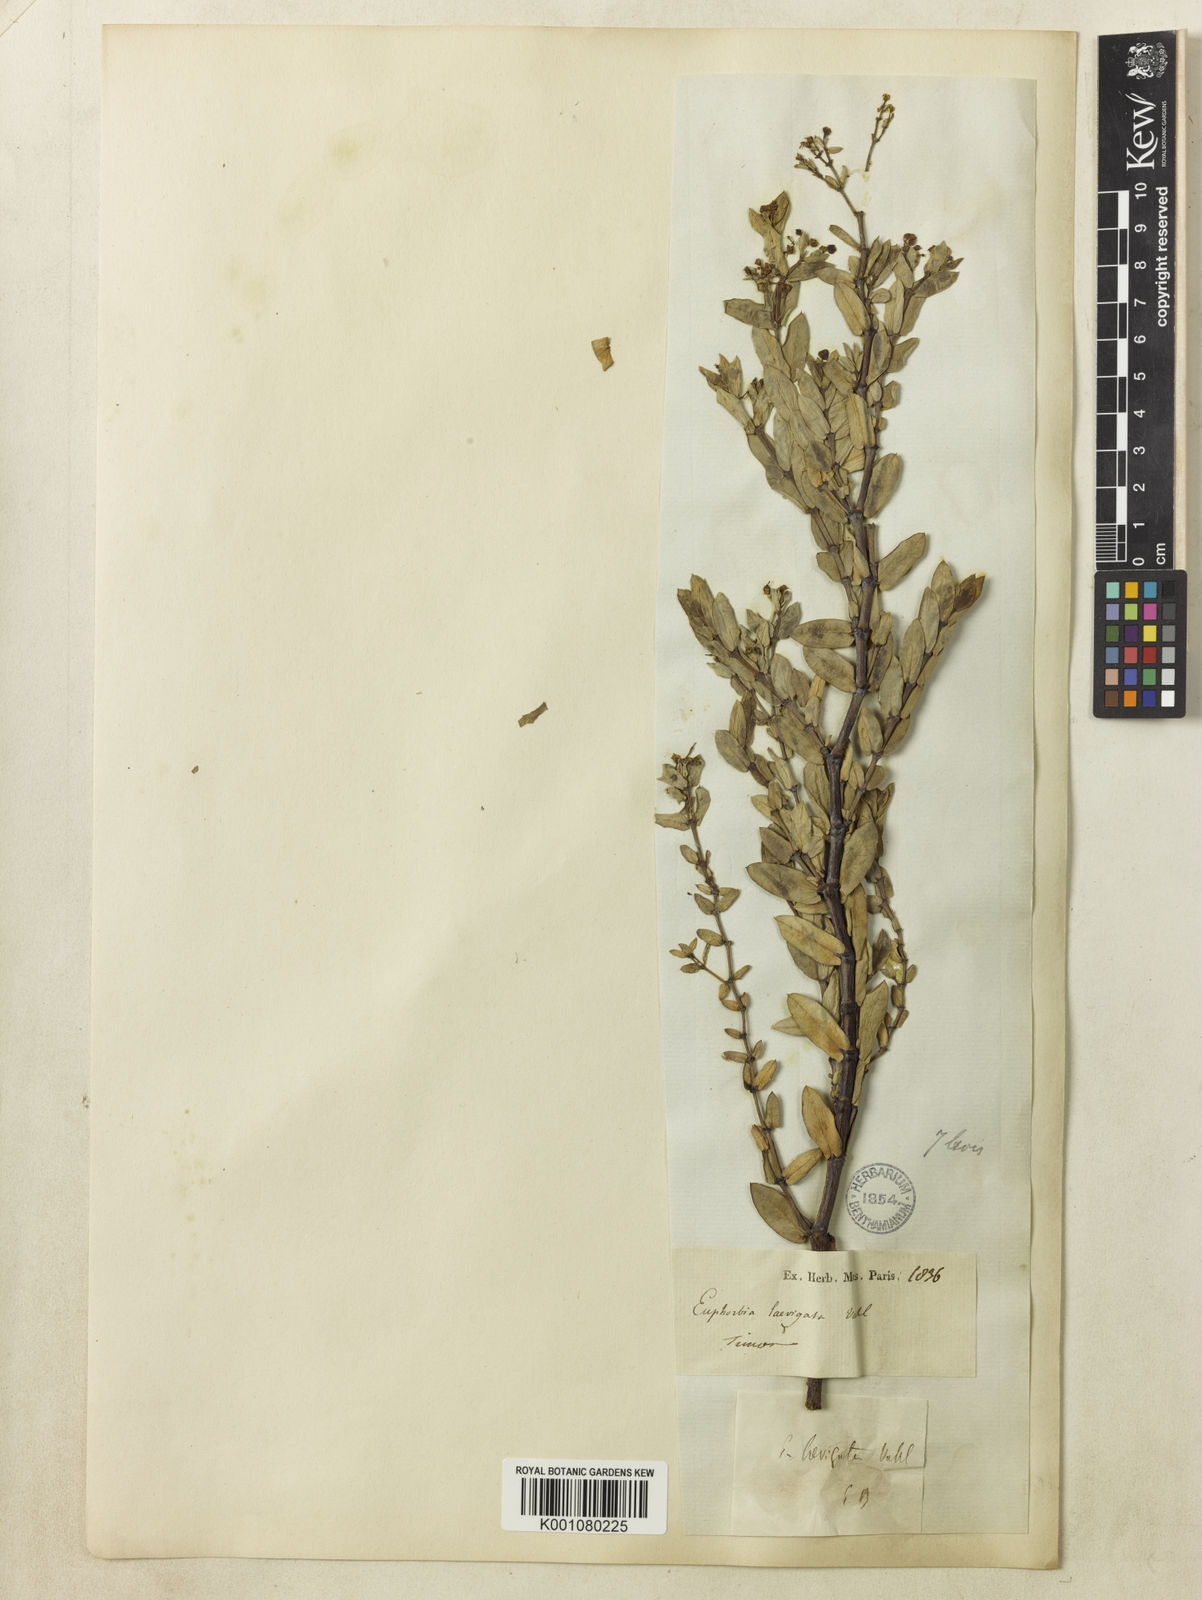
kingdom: Plantae
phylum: Tracheophyta
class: Magnoliopsida
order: Malpighiales
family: Euphorbiaceae
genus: Euphorbia
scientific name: Euphorbia pallens
